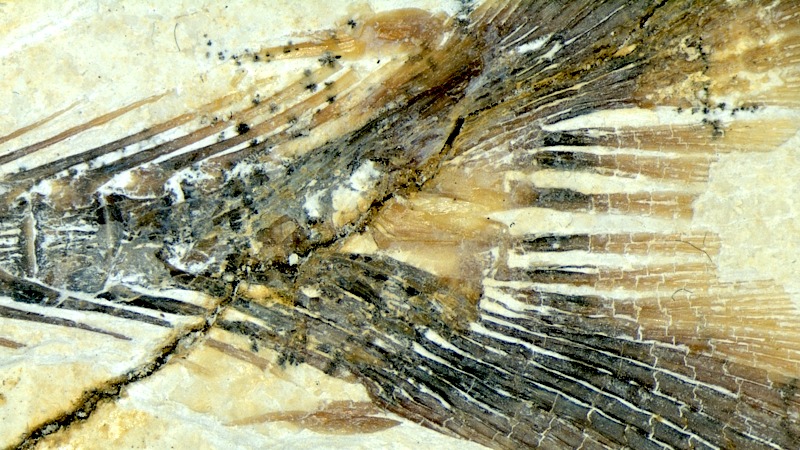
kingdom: Animalia
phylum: Chordata
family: Allothrissopidae
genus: Allothrissops
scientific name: Allothrissops mesogaster
